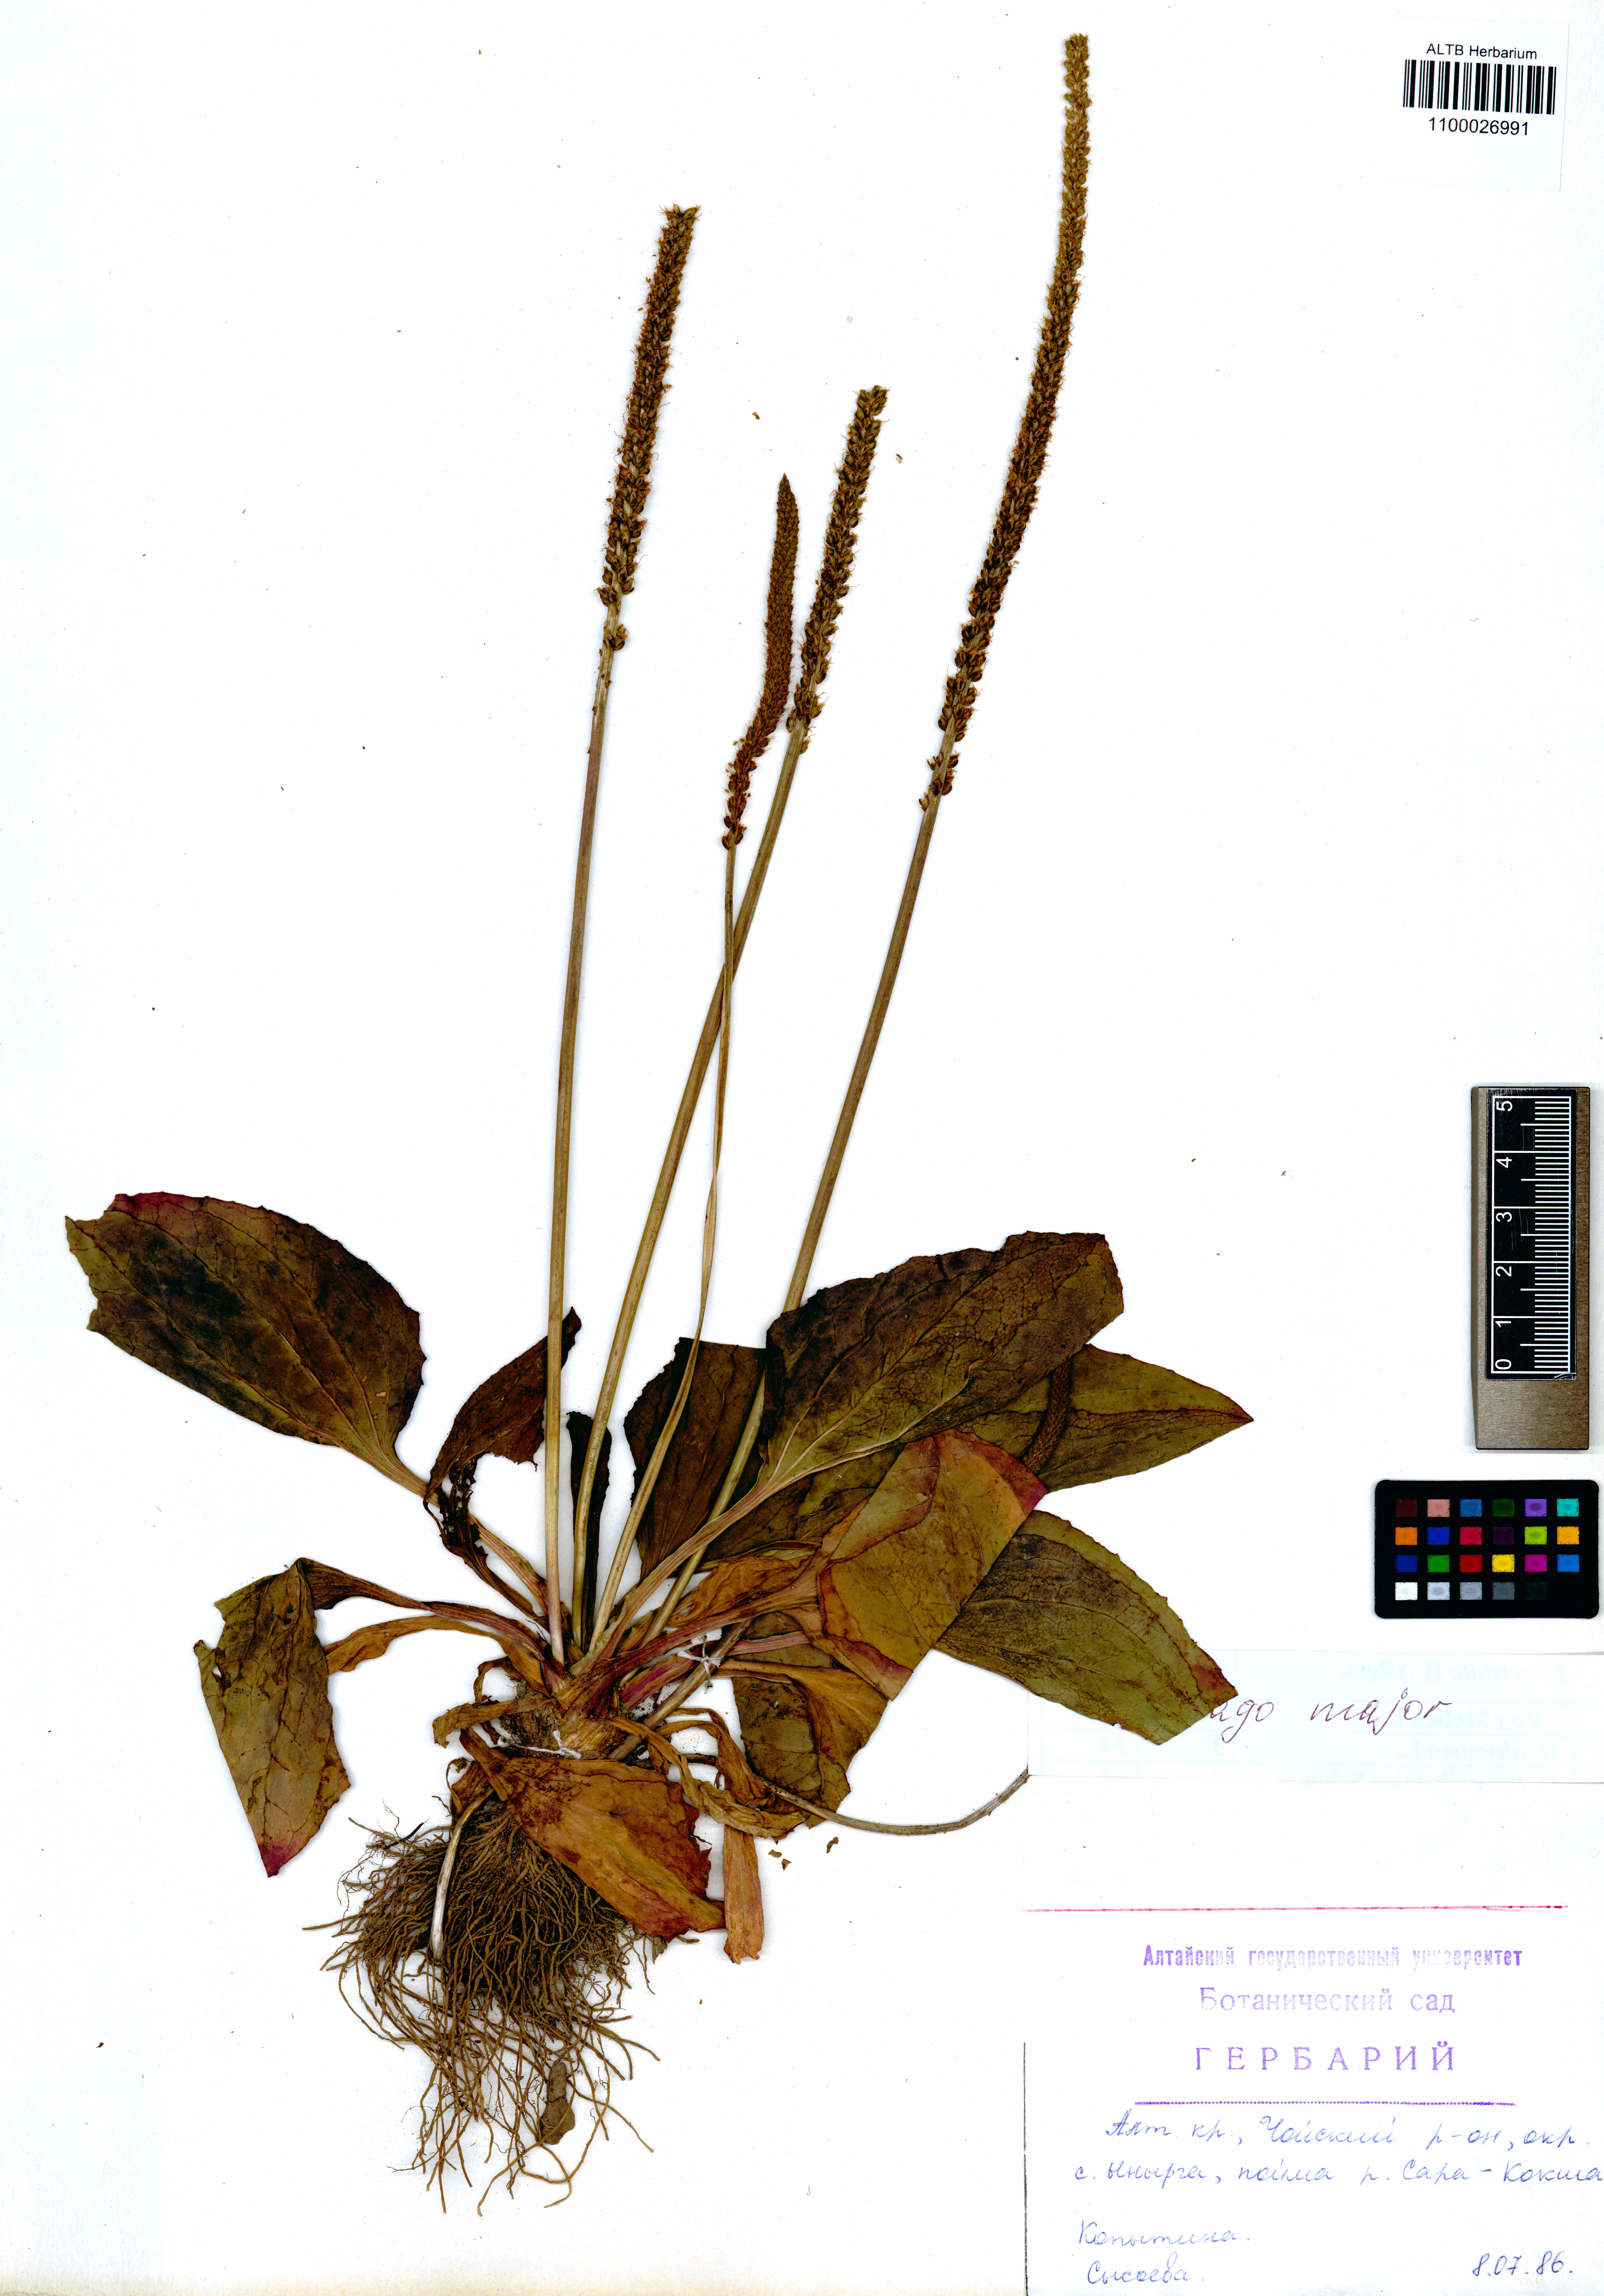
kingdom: Plantae
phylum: Tracheophyta
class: Magnoliopsida
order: Lamiales
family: Plantaginaceae
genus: Plantago
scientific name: Plantago major
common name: Common plantain
